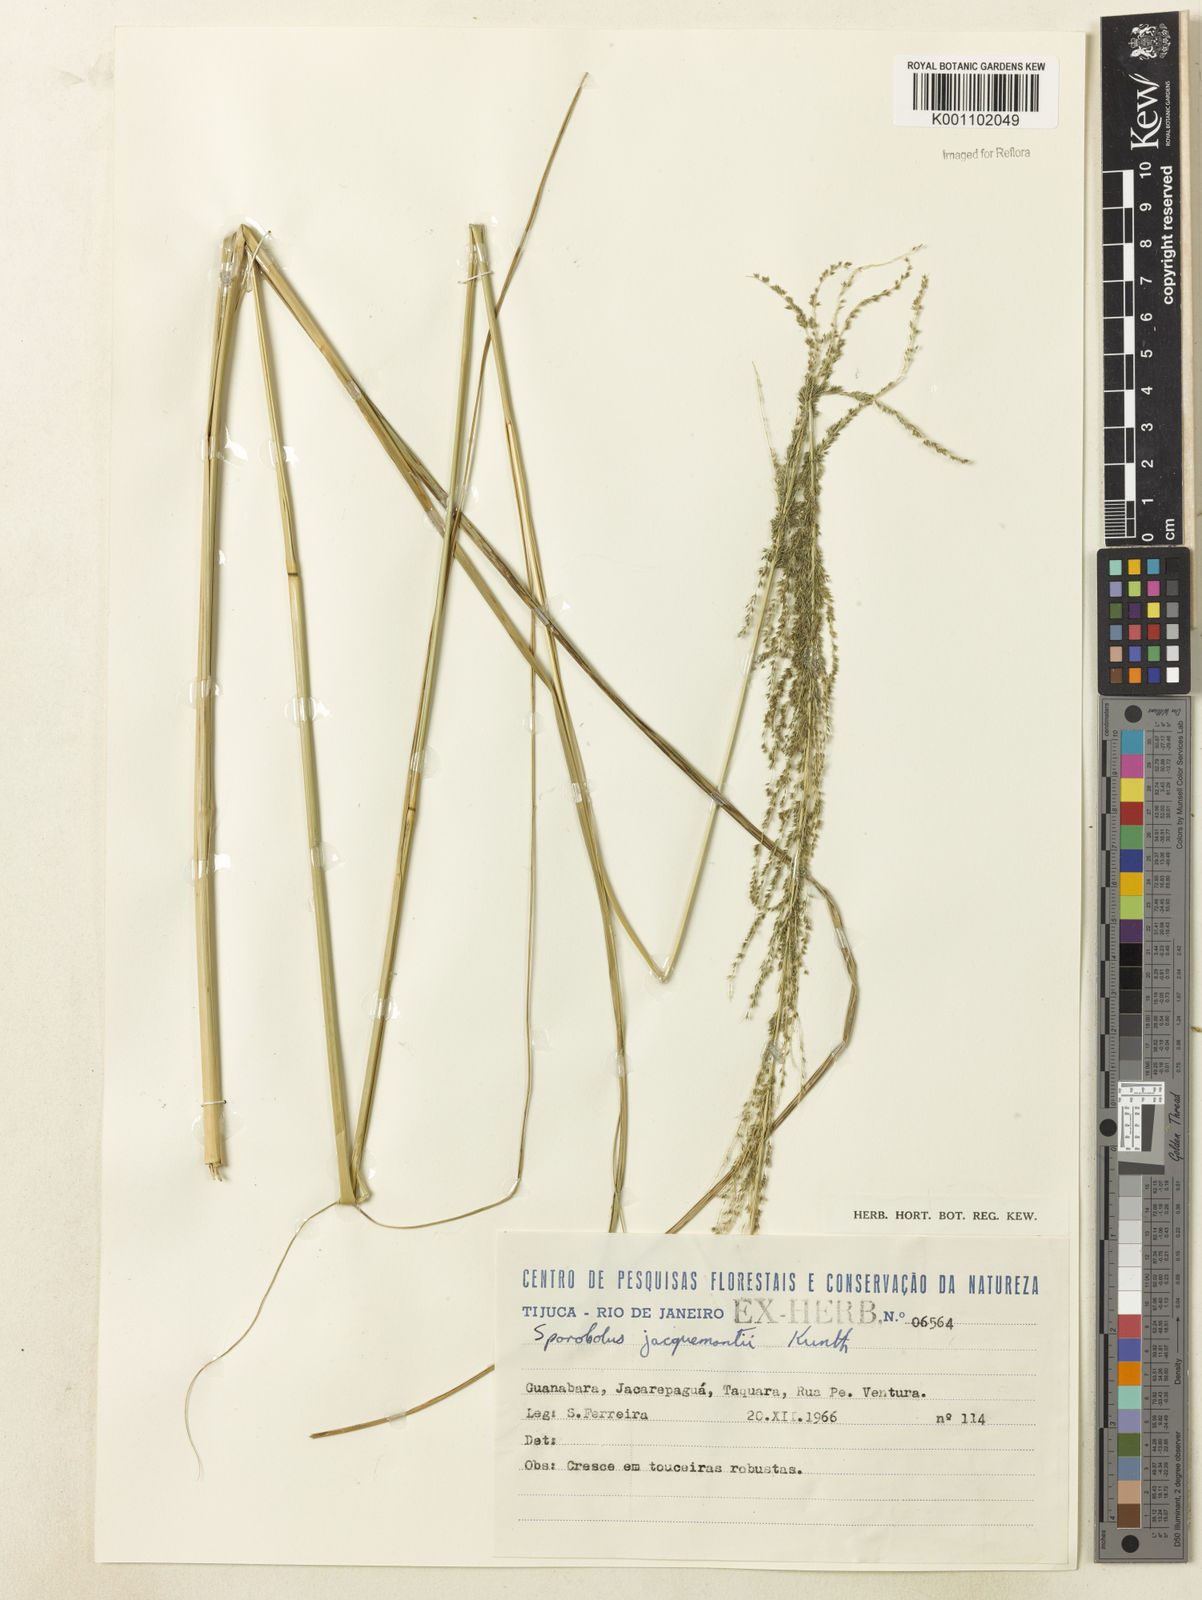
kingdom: Plantae
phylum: Tracheophyta
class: Liliopsida
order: Poales
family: Poaceae
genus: Sporobolus
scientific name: Sporobolus pyramidalis
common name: West indian dropseed
